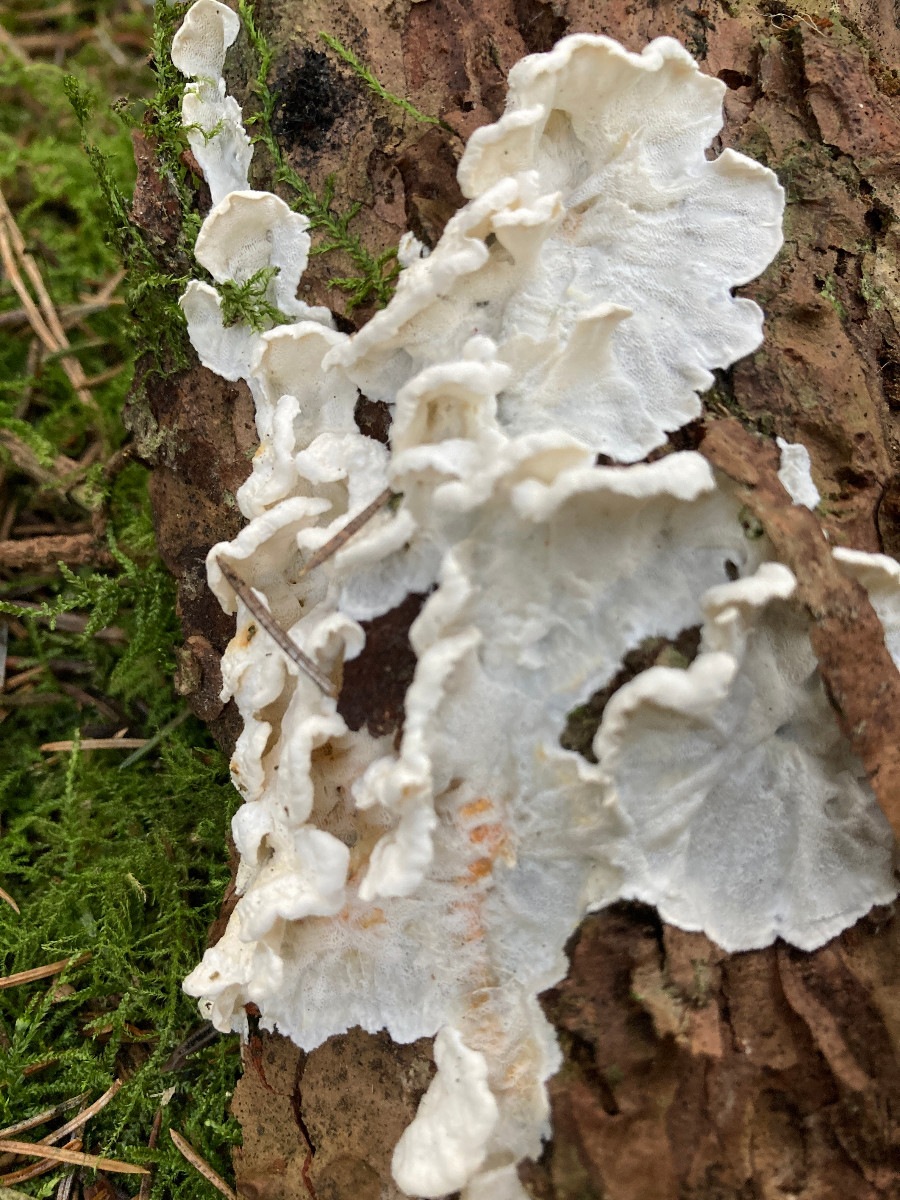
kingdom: Fungi
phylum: Basidiomycota
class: Agaricomycetes
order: Polyporales
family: Incrustoporiaceae
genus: Skeletocutis
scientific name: Skeletocutis amorpha
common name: orange krystalporesvamp
